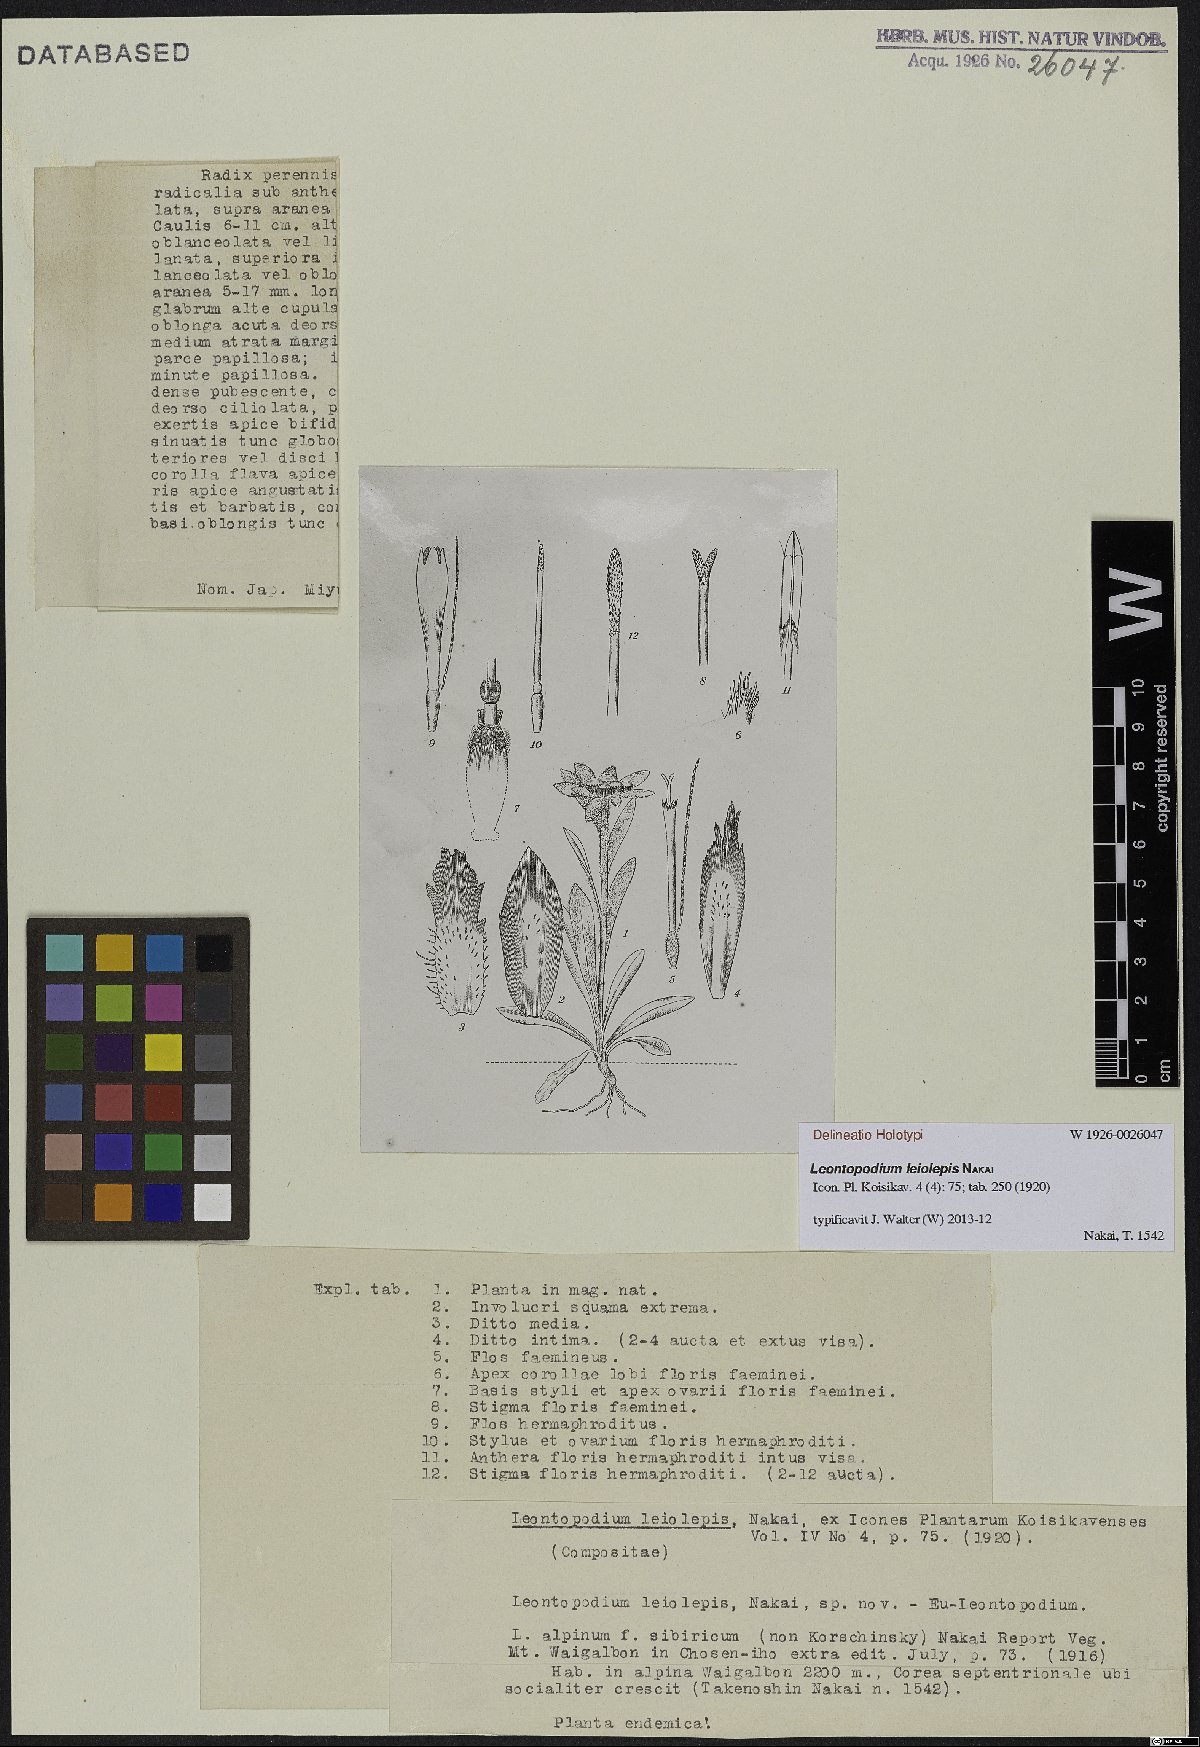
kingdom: Plantae
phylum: Tracheophyta
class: Magnoliopsida
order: Asterales
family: Asteraceae
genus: Leontopodium
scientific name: Leontopodium coreanum
